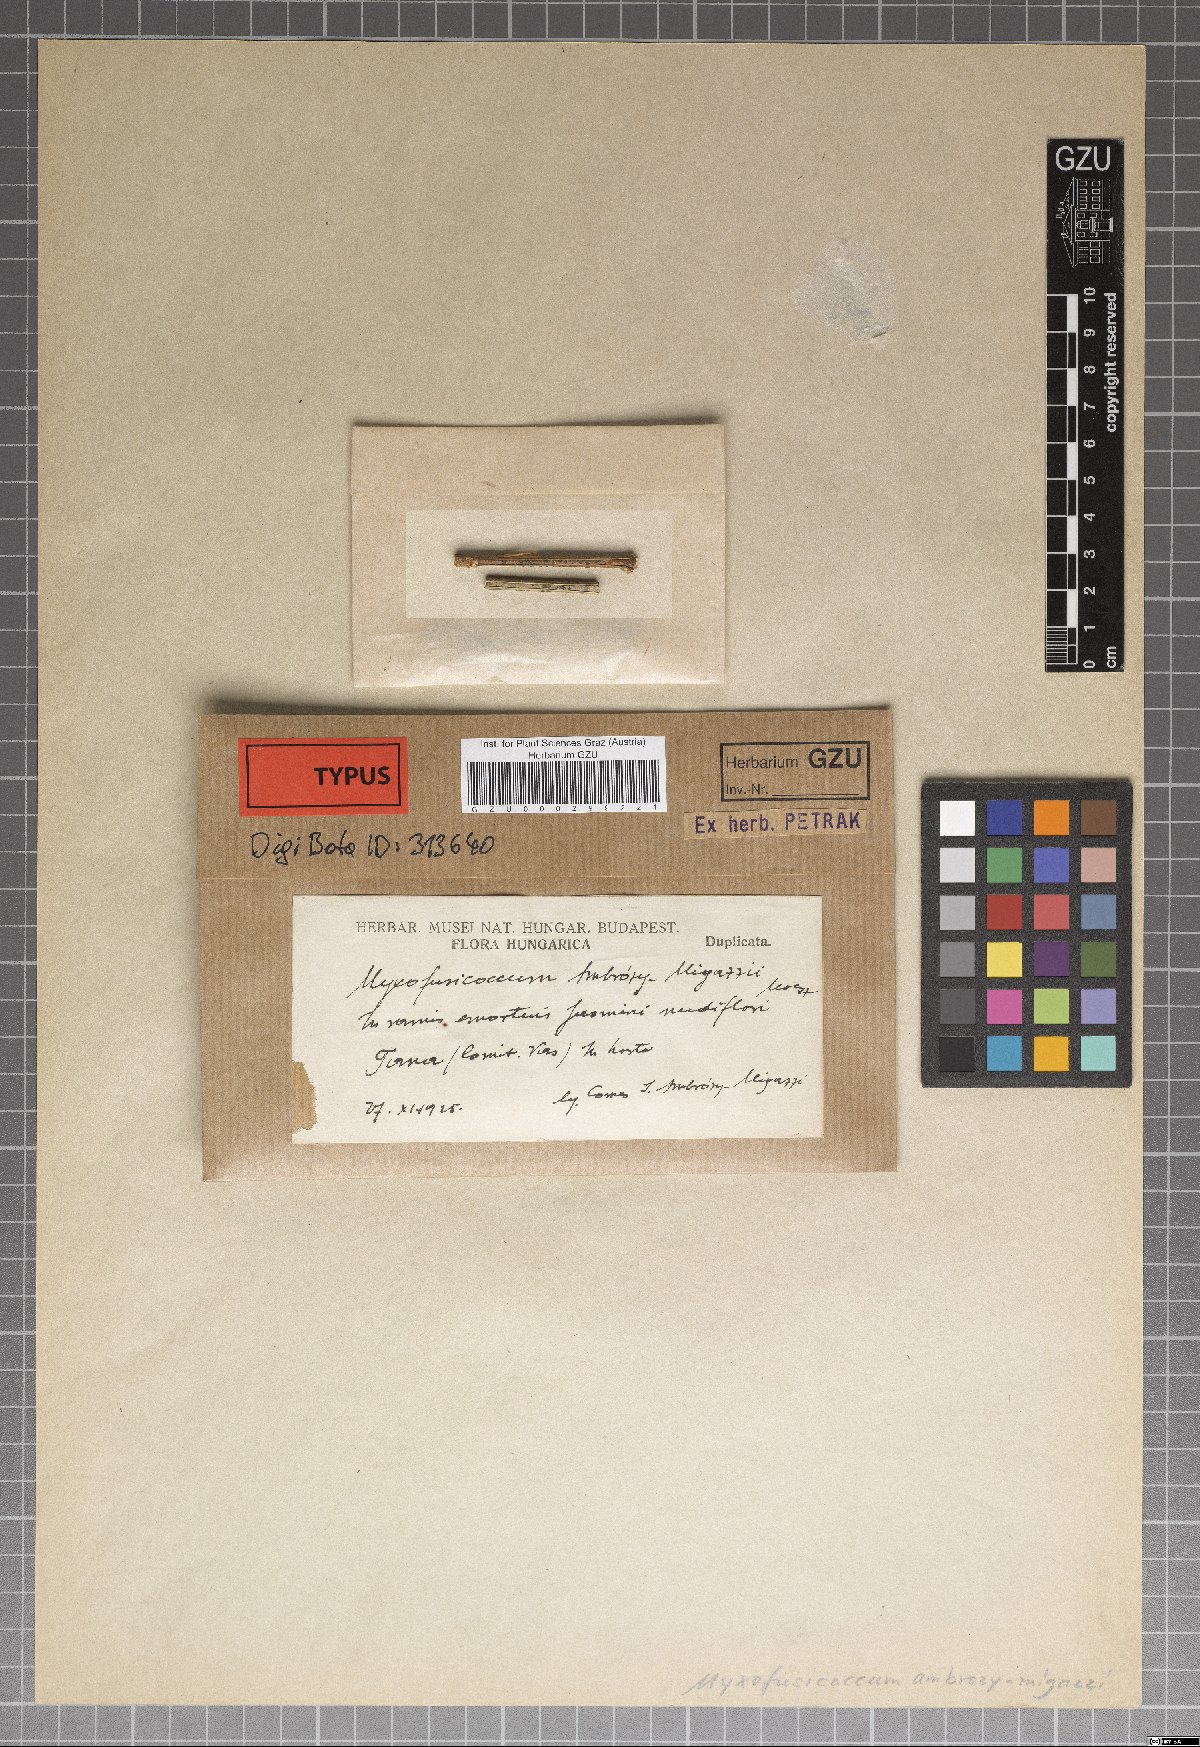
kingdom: Fungi
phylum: Ascomycota
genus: Myxofusicoccum
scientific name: Myxofusicoccum
